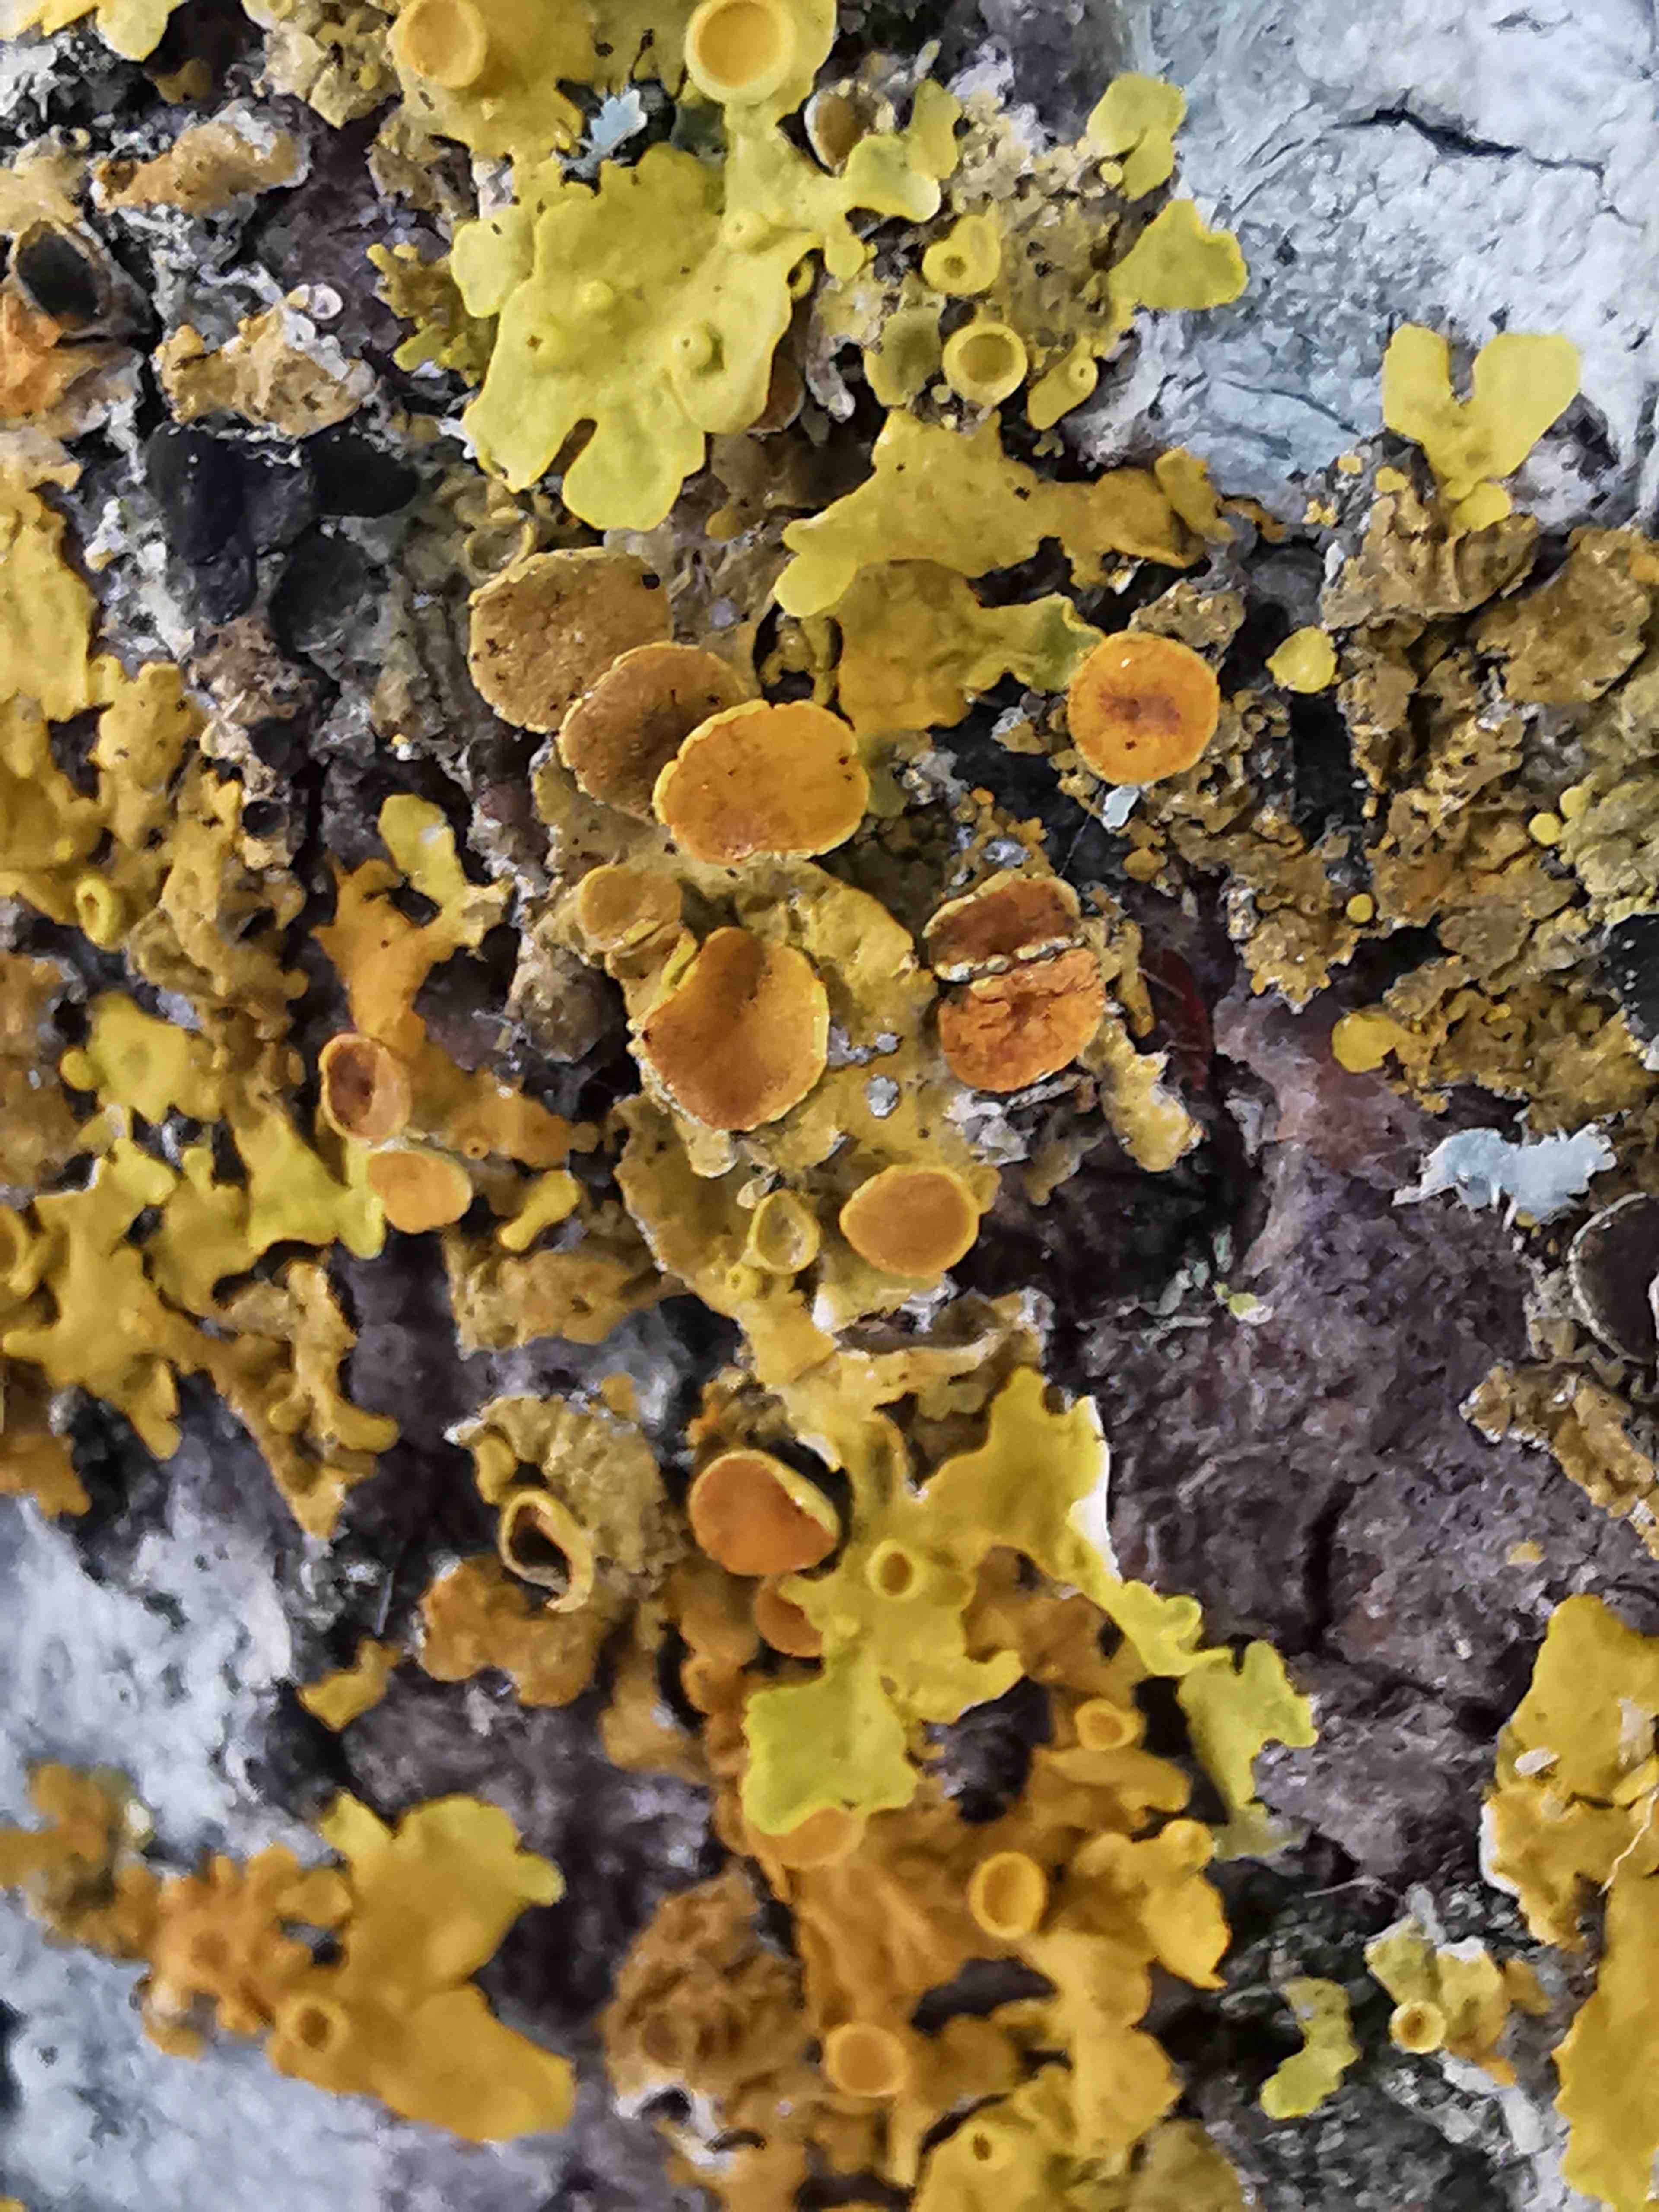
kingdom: Fungi
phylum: Ascomycota
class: Lecanoromycetes
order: Teloschistales
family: Teloschistaceae
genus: Xanthoria
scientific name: Xanthoria parietina
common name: almindelig væggelav
